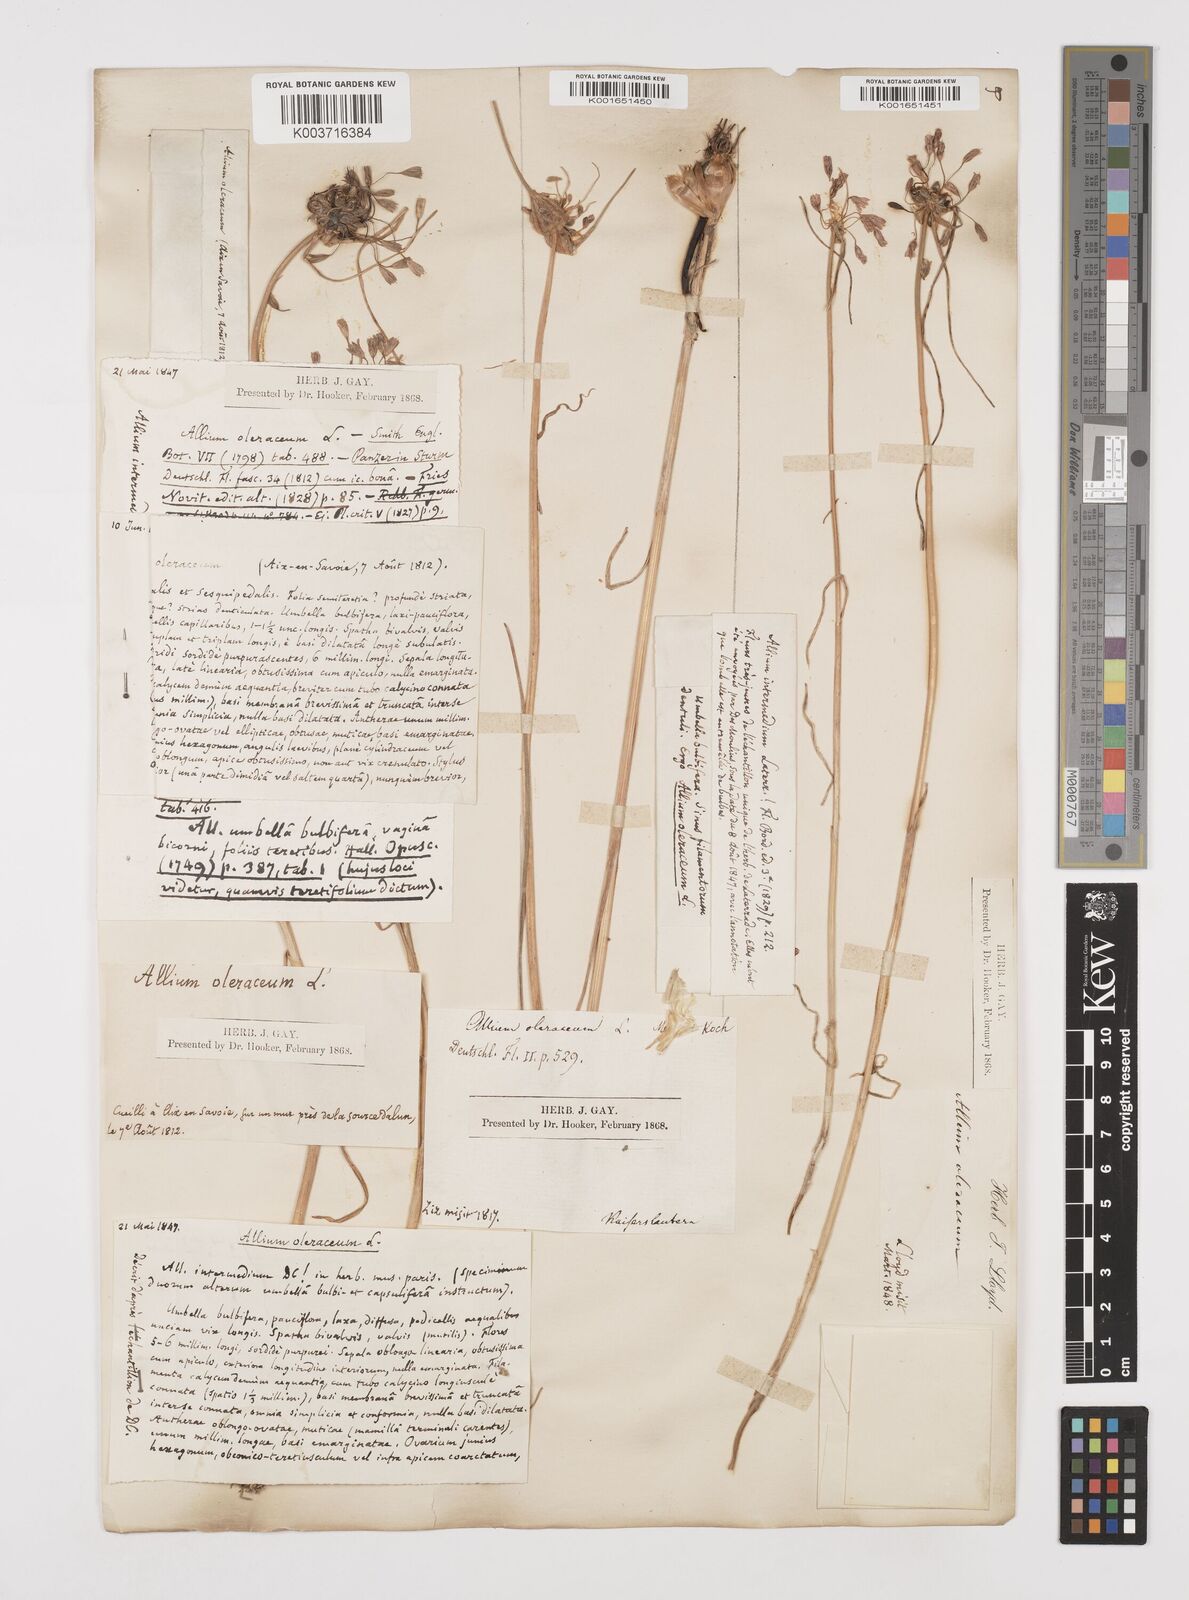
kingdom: Plantae
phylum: Tracheophyta
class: Liliopsida
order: Asparagales
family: Amaryllidaceae
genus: Allium
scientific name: Allium oleraceum
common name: Field garlic
